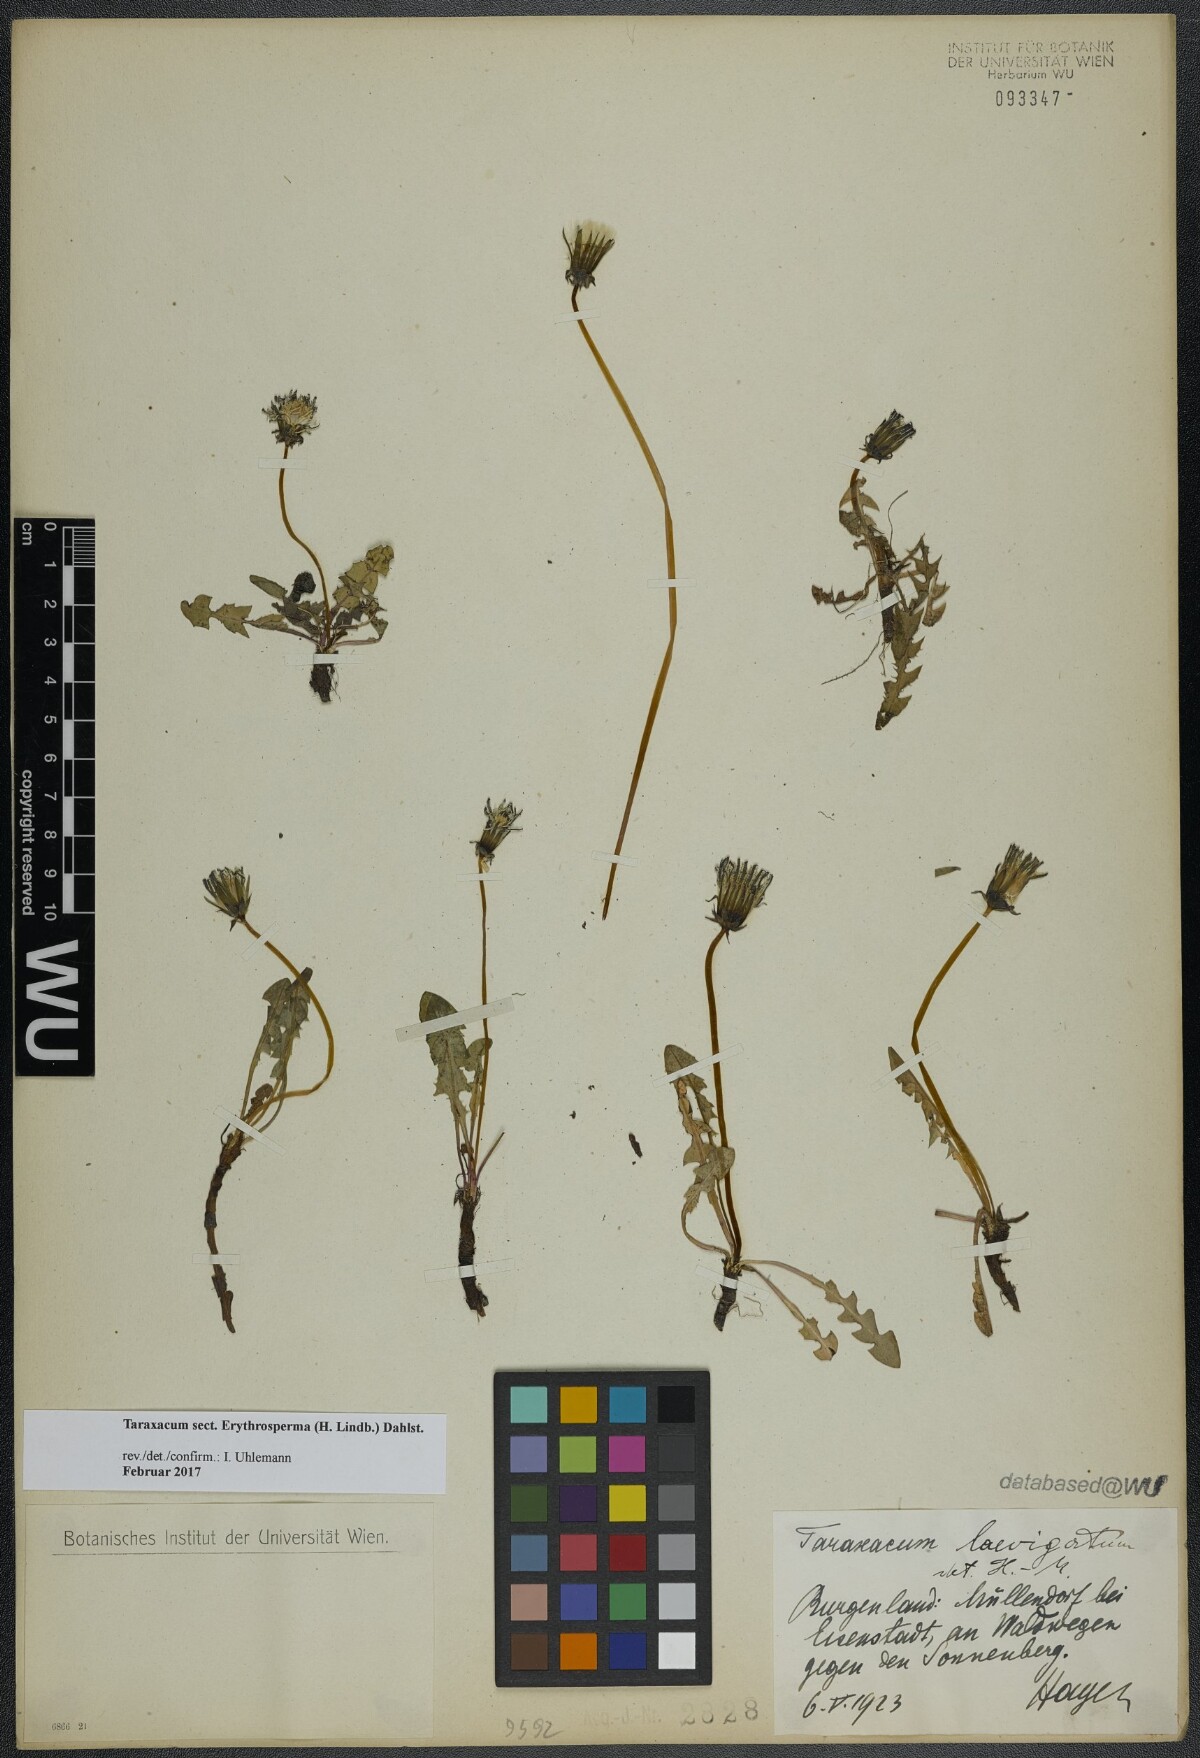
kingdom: Plantae
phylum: Tracheophyta
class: Magnoliopsida
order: Asterales
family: Asteraceae
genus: Taraxacum
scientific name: Taraxacum
